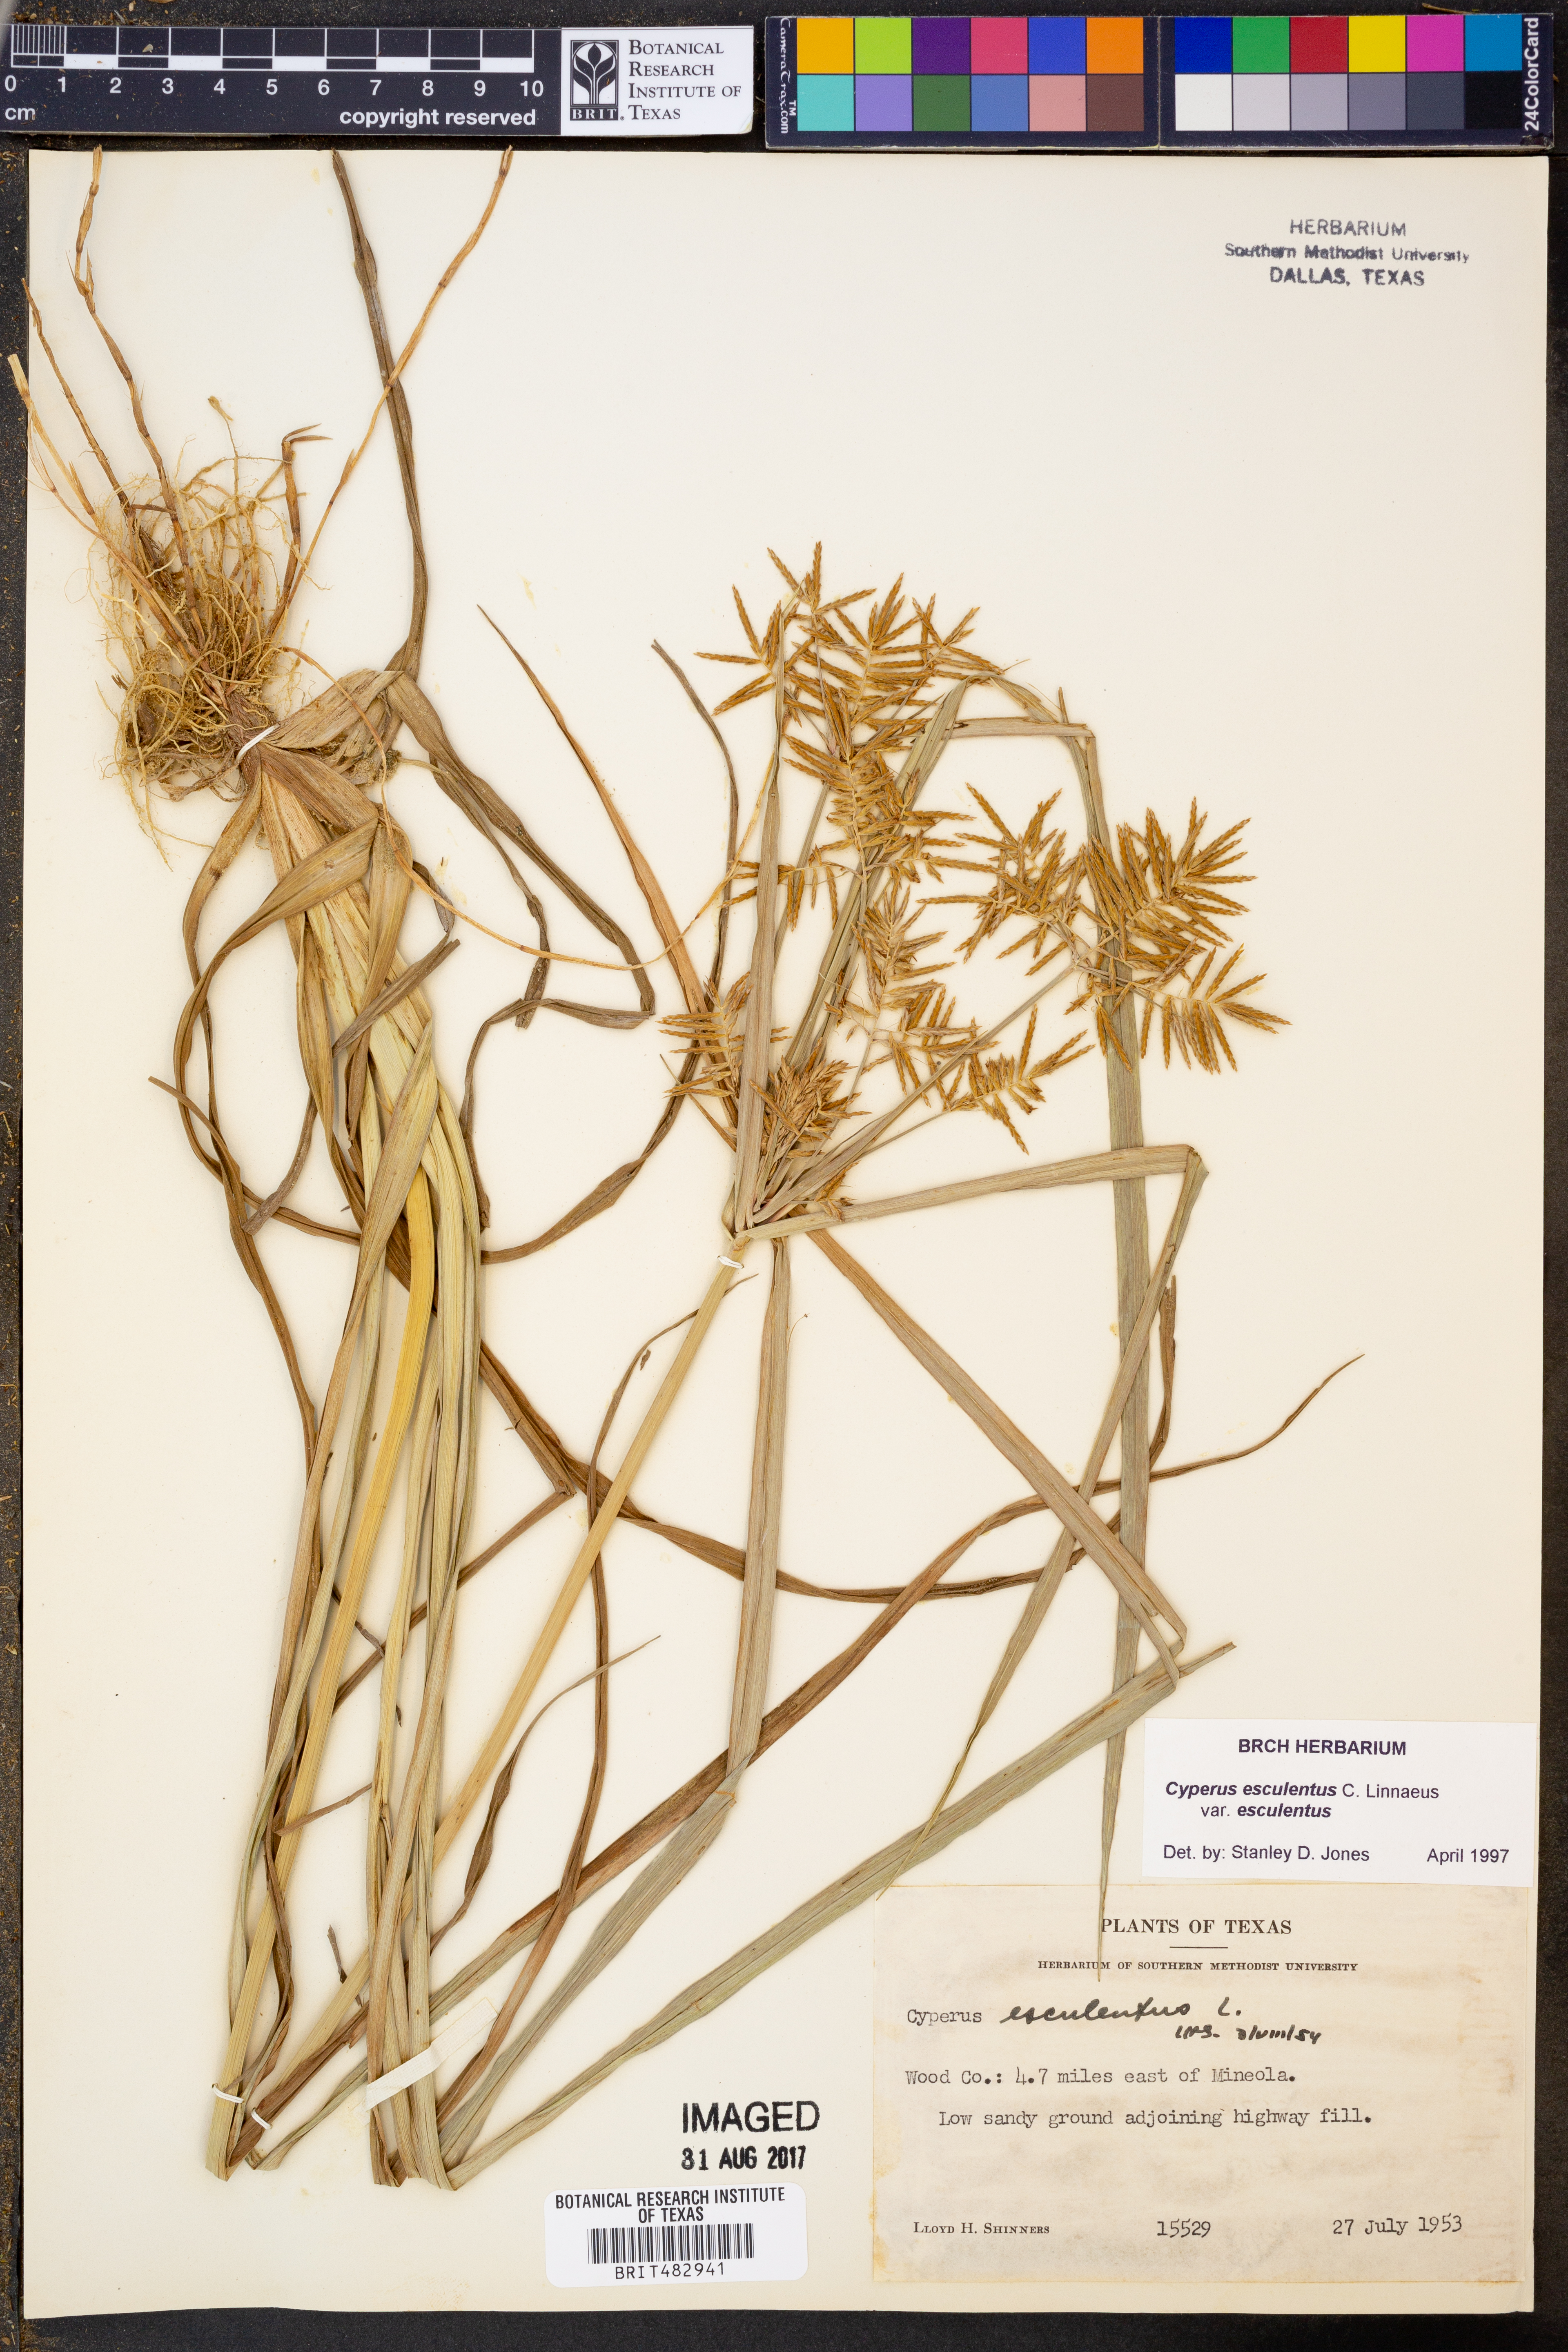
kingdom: Plantae
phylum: Tracheophyta
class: Liliopsida
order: Poales
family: Cyperaceae
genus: Cyperus
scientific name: Cyperus esculentus
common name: Yellow nutsedge
